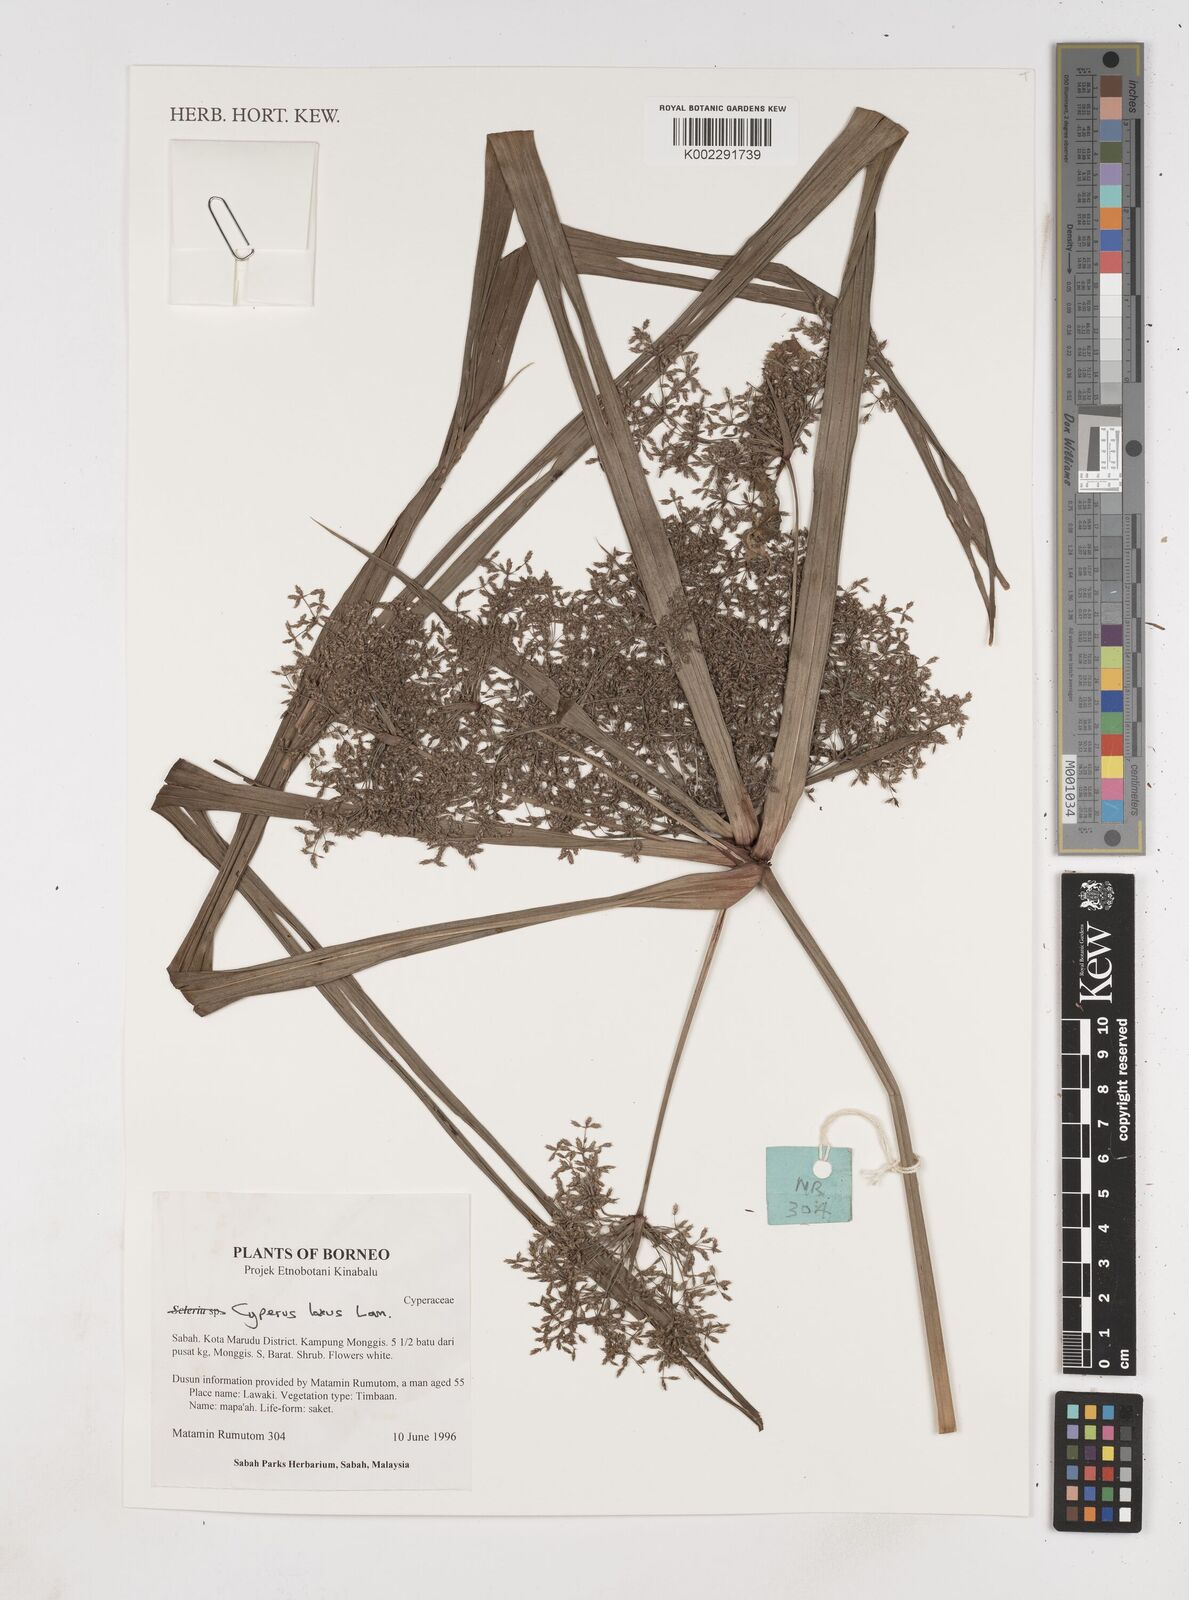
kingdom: Plantae
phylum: Tracheophyta
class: Liliopsida
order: Poales
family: Cyperaceae
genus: Cyperus
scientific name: Cyperus diffusus
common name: Dwarf umbrella grass
